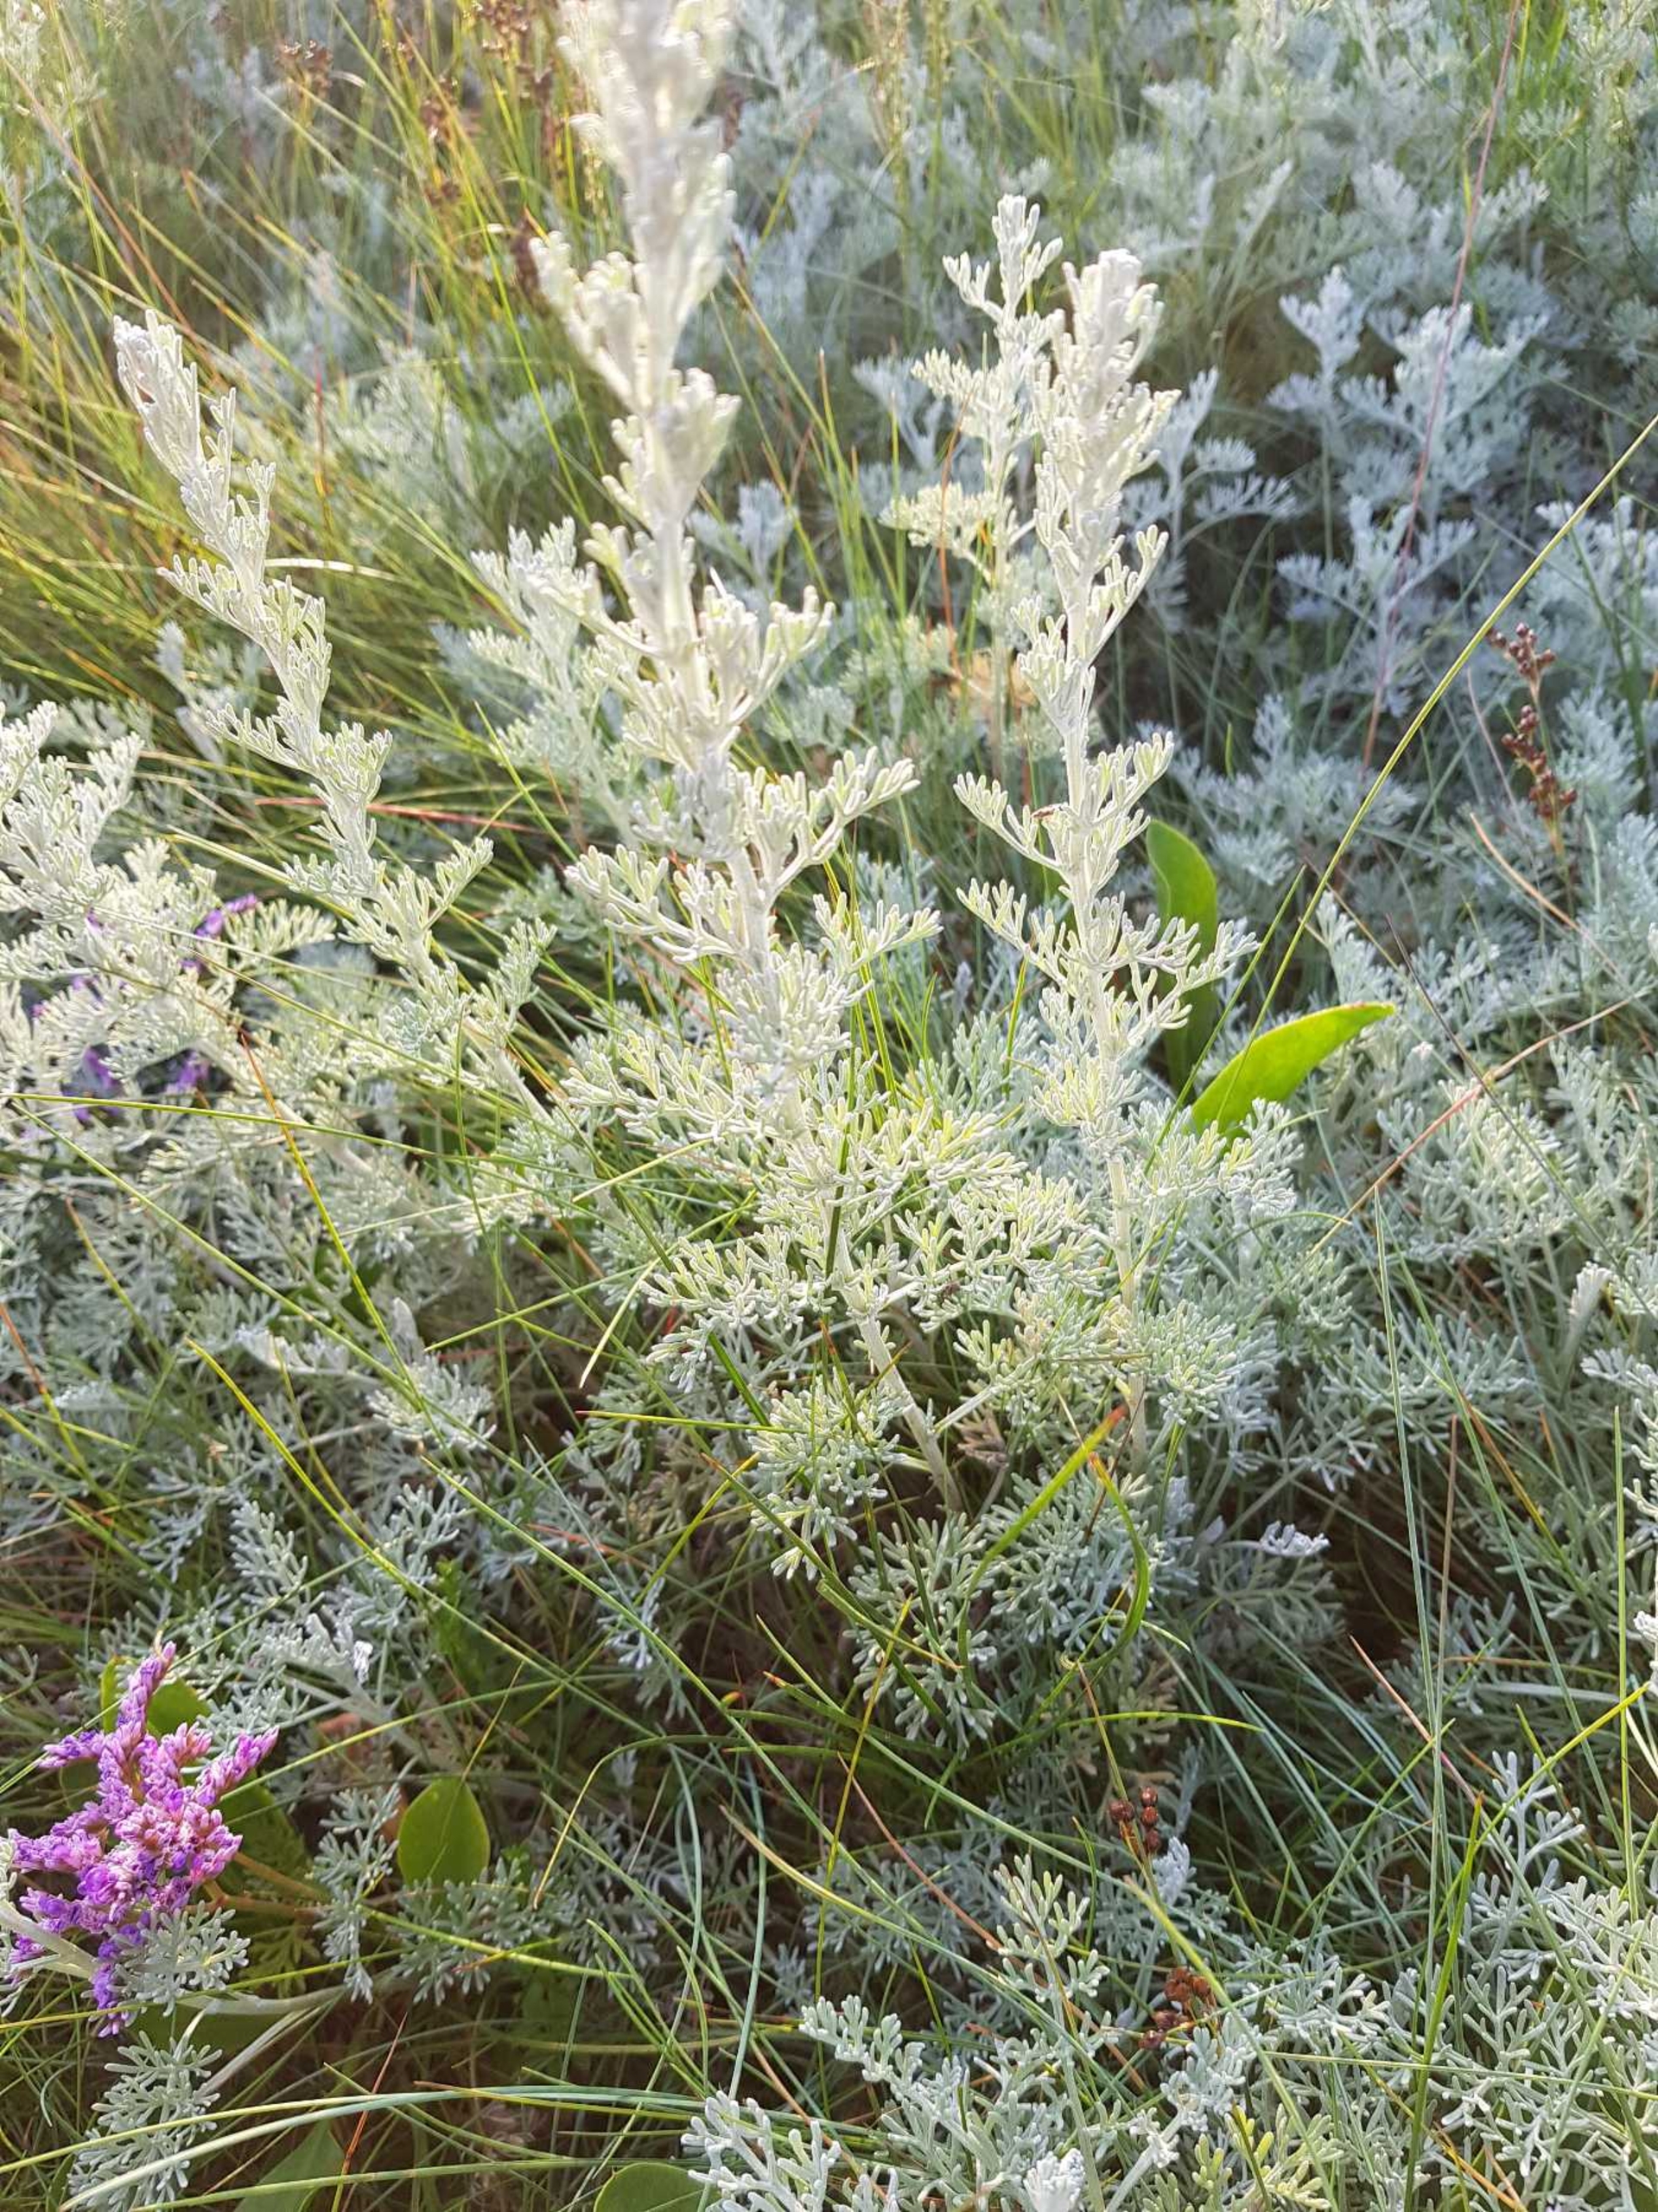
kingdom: Plantae
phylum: Tracheophyta
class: Magnoliopsida
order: Asterales
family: Asteraceae
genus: Artemisia
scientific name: Artemisia maritima
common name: Strandmalurt
